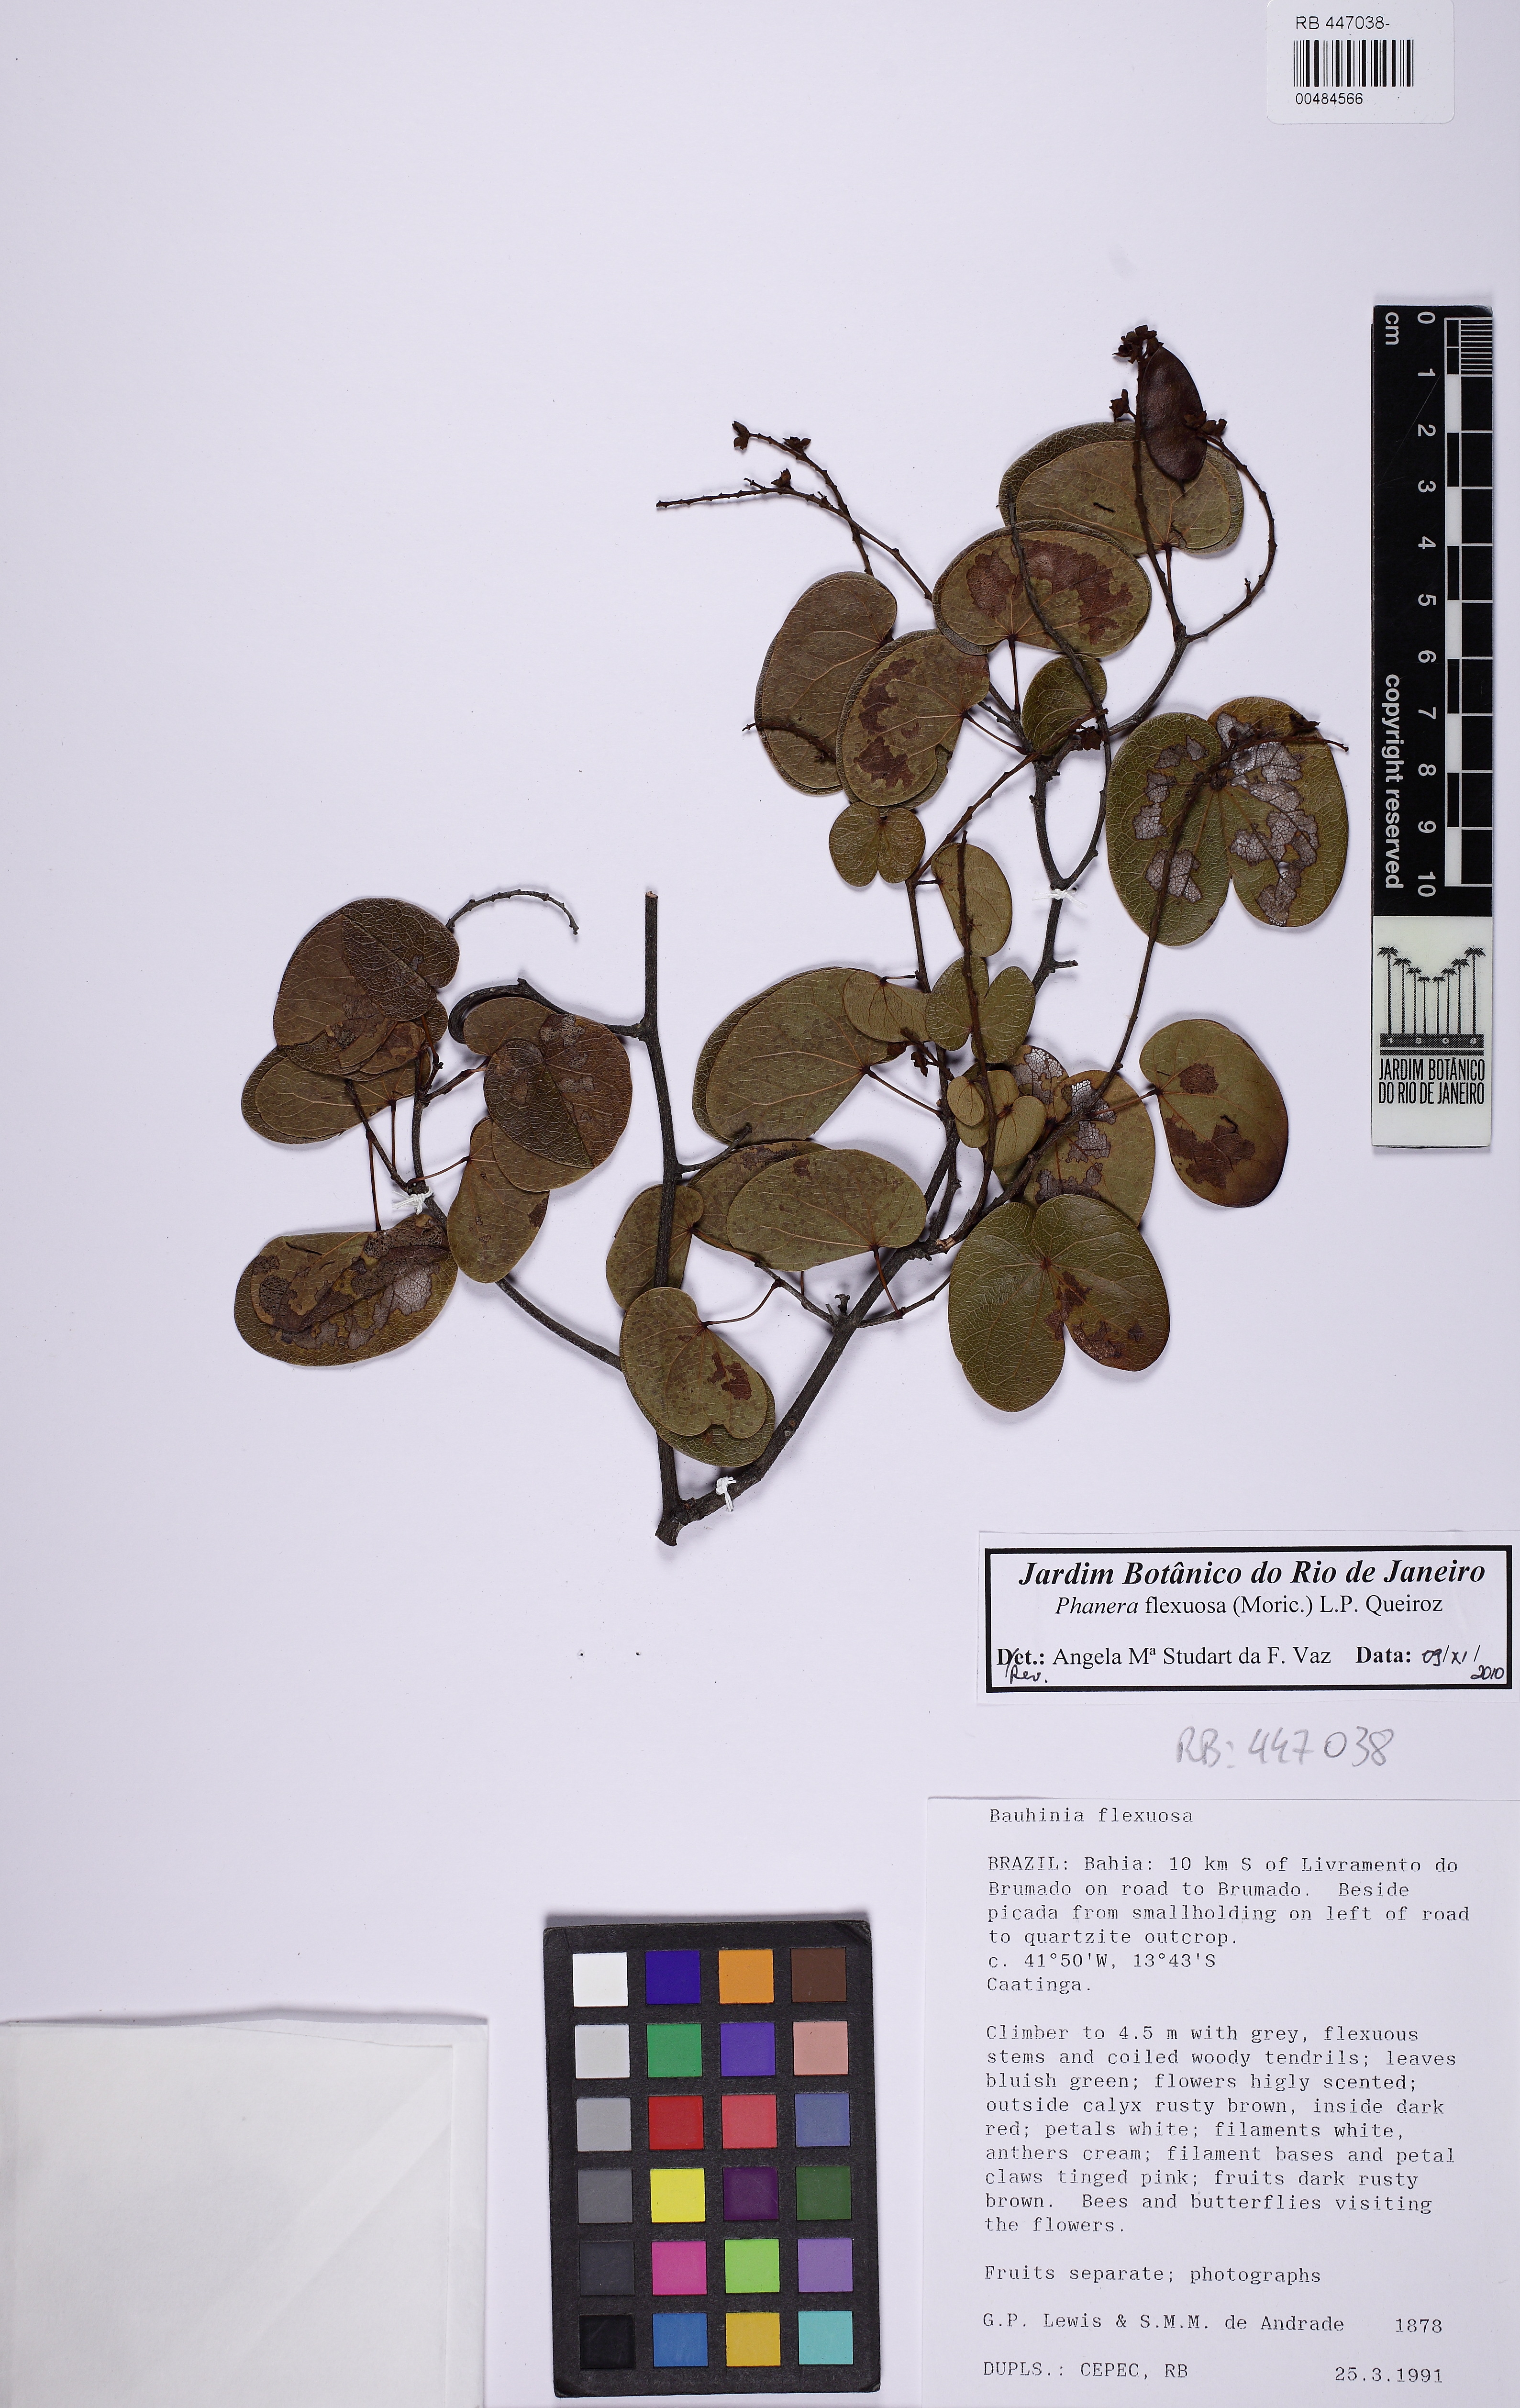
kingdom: Plantae
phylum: Tracheophyta
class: Magnoliopsida
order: Fabales
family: Fabaceae
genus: Schnella
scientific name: Schnella flexuosa
